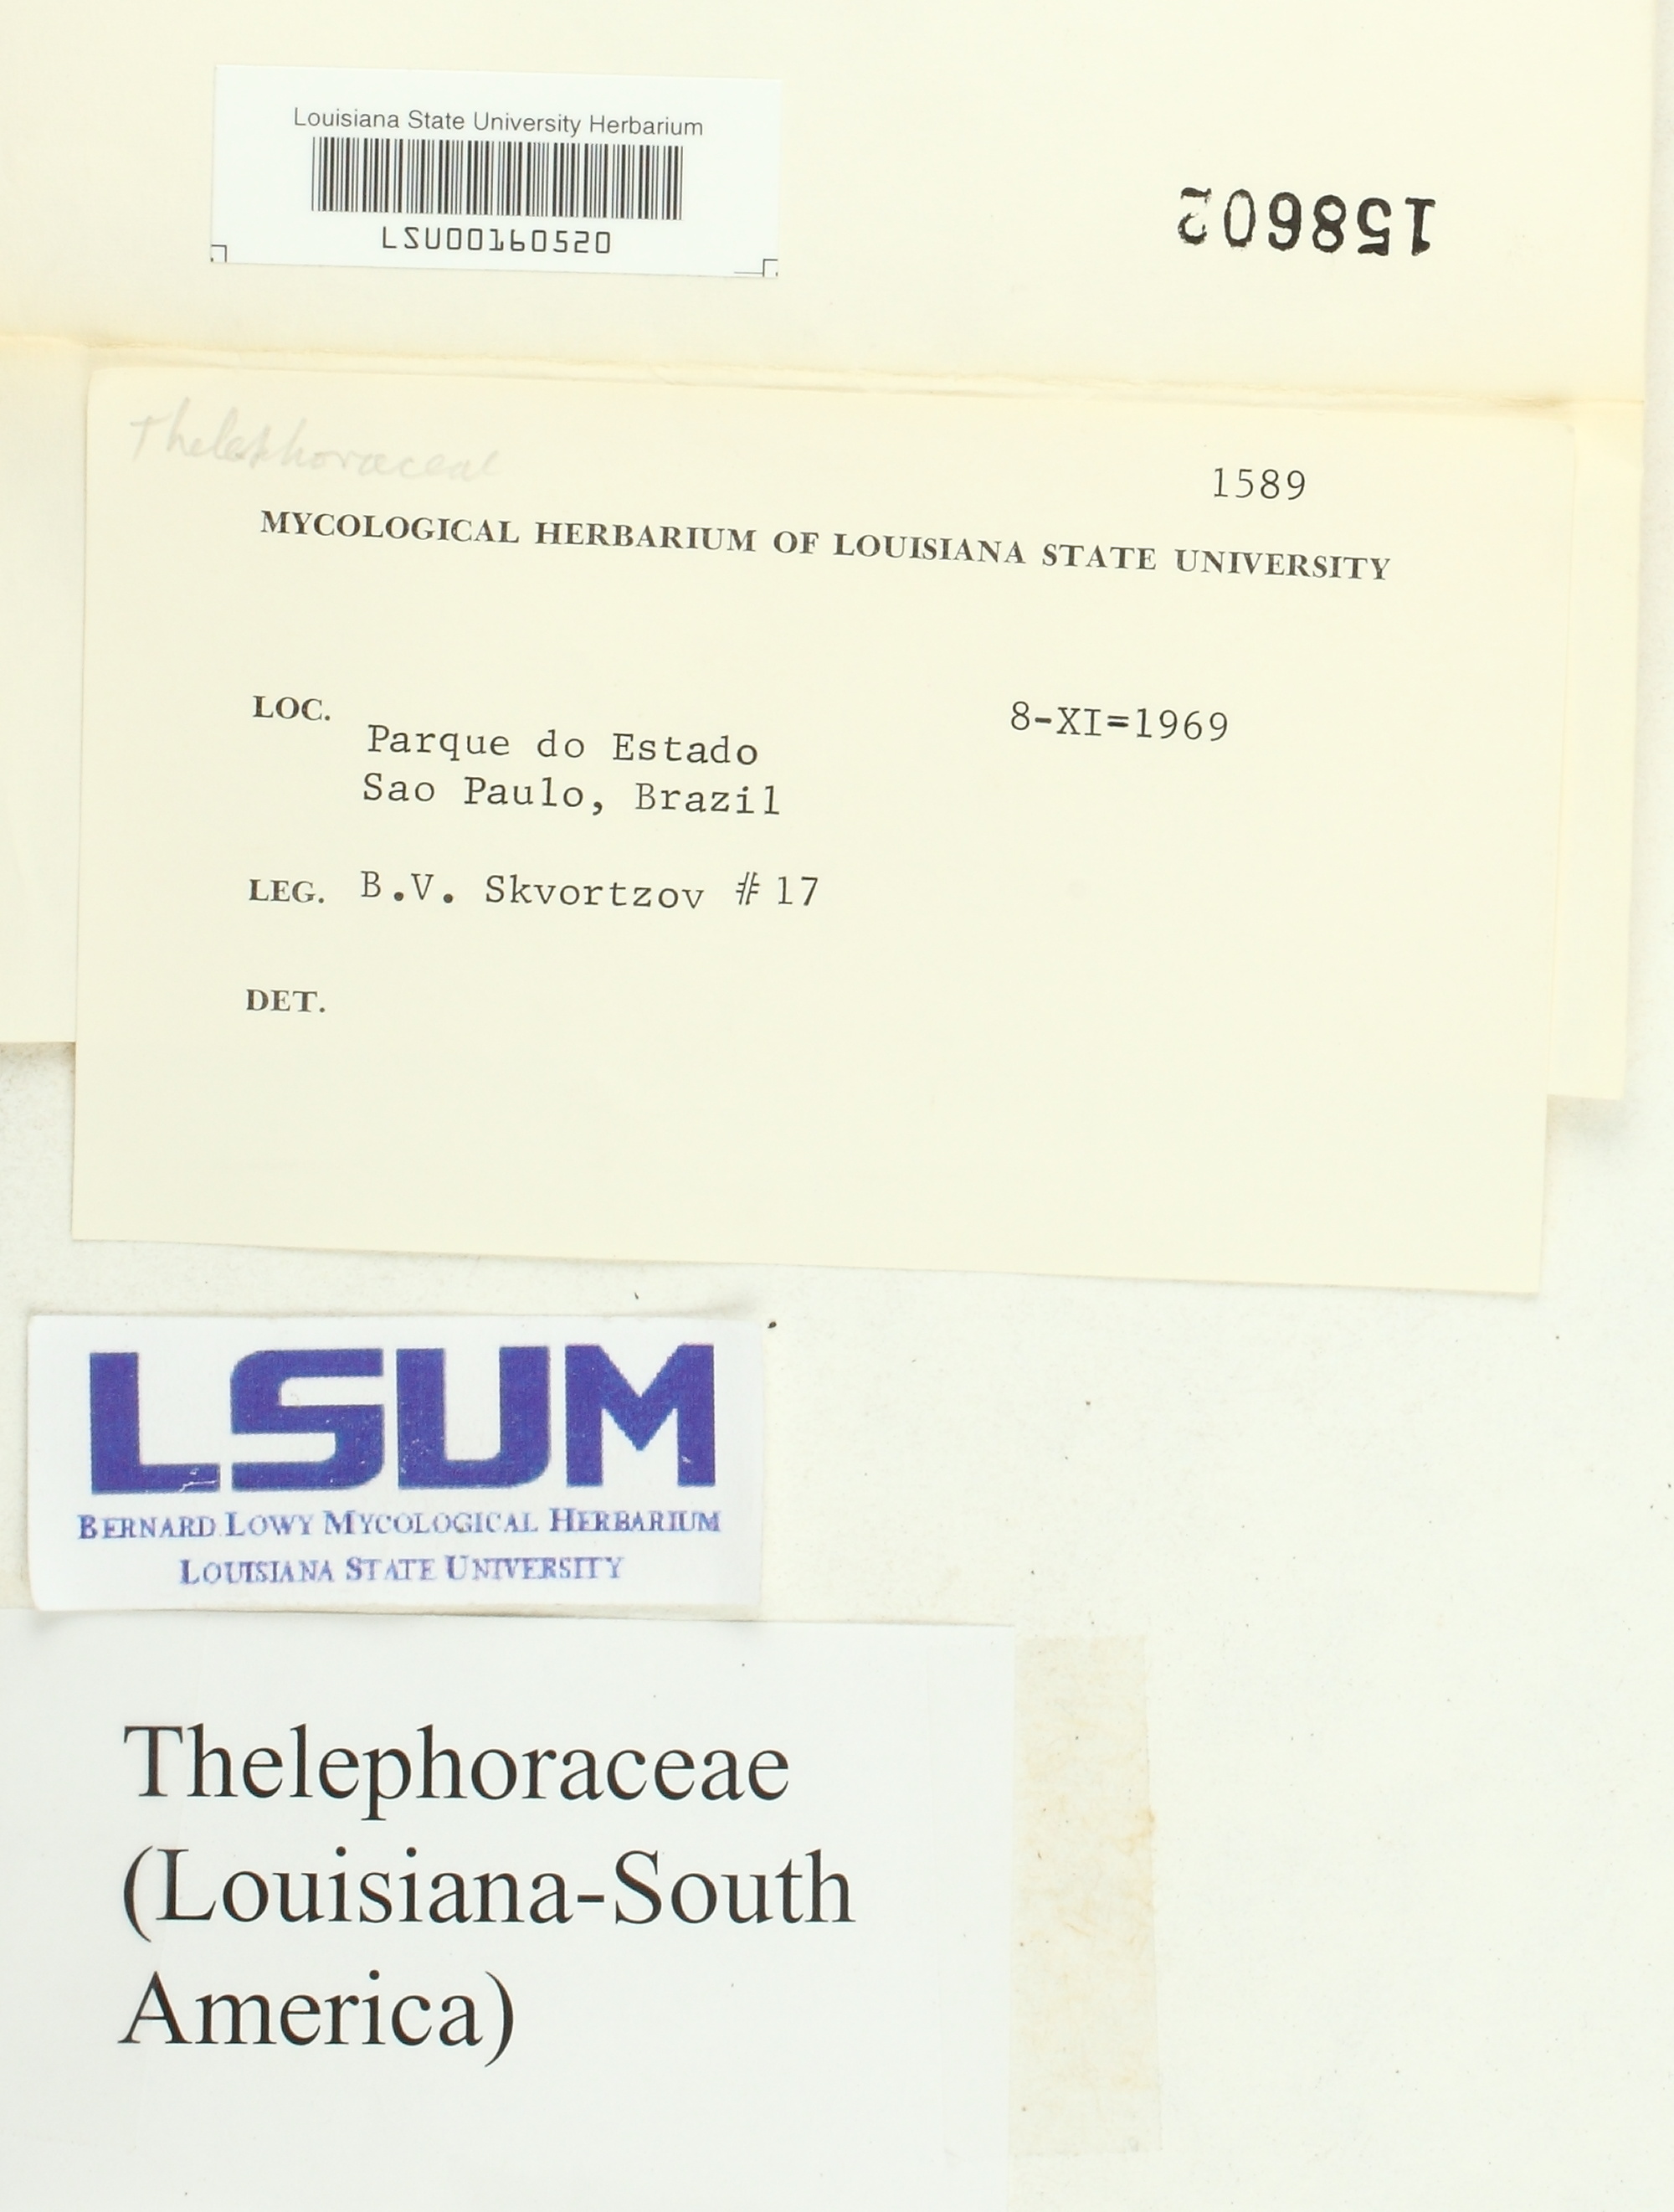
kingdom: Fungi
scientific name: Fungi
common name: Fungi
